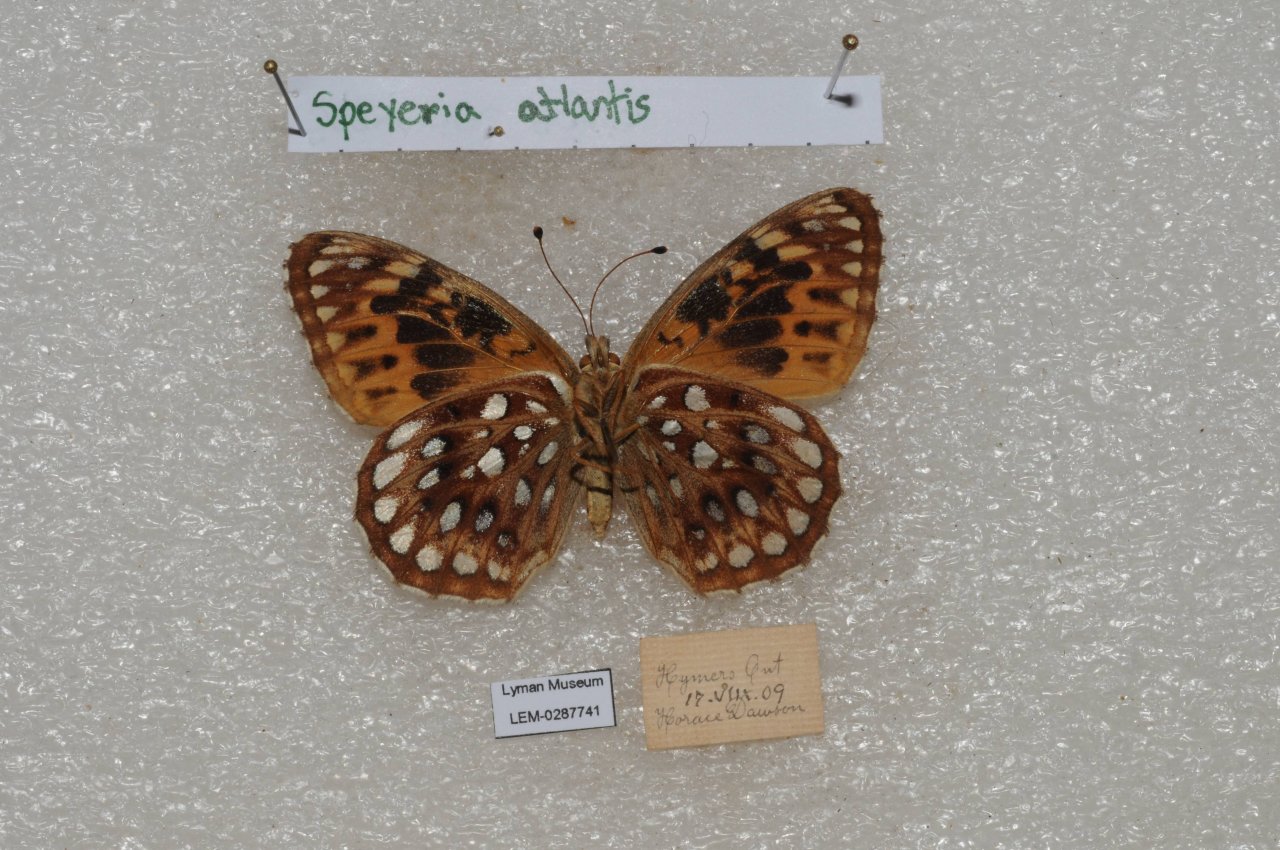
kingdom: Animalia
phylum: Arthropoda
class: Insecta
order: Lepidoptera
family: Nymphalidae
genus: Speyeria
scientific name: Speyeria atlantis
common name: Atlantis Fritillary
